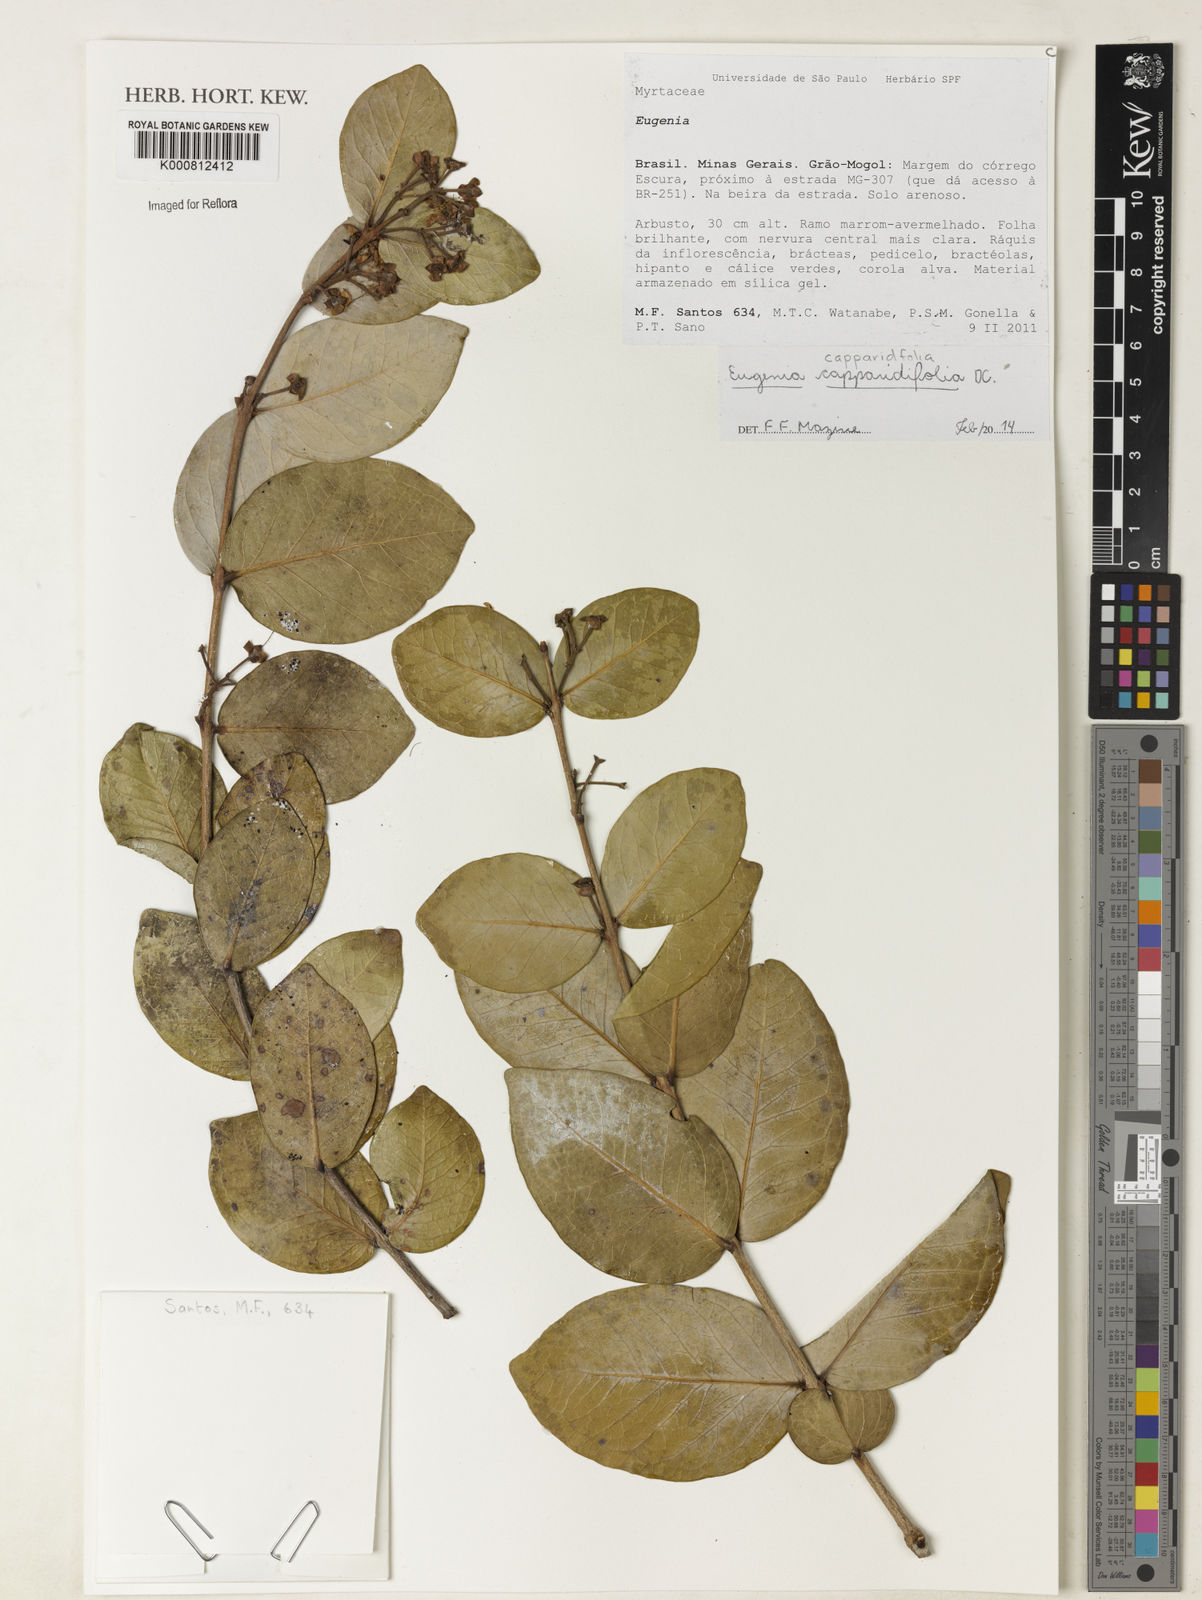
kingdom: Plantae
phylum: Tracheophyta
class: Magnoliopsida
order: Myrtales
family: Myrtaceae
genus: Eugenia
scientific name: Eugenia capparidifolia
